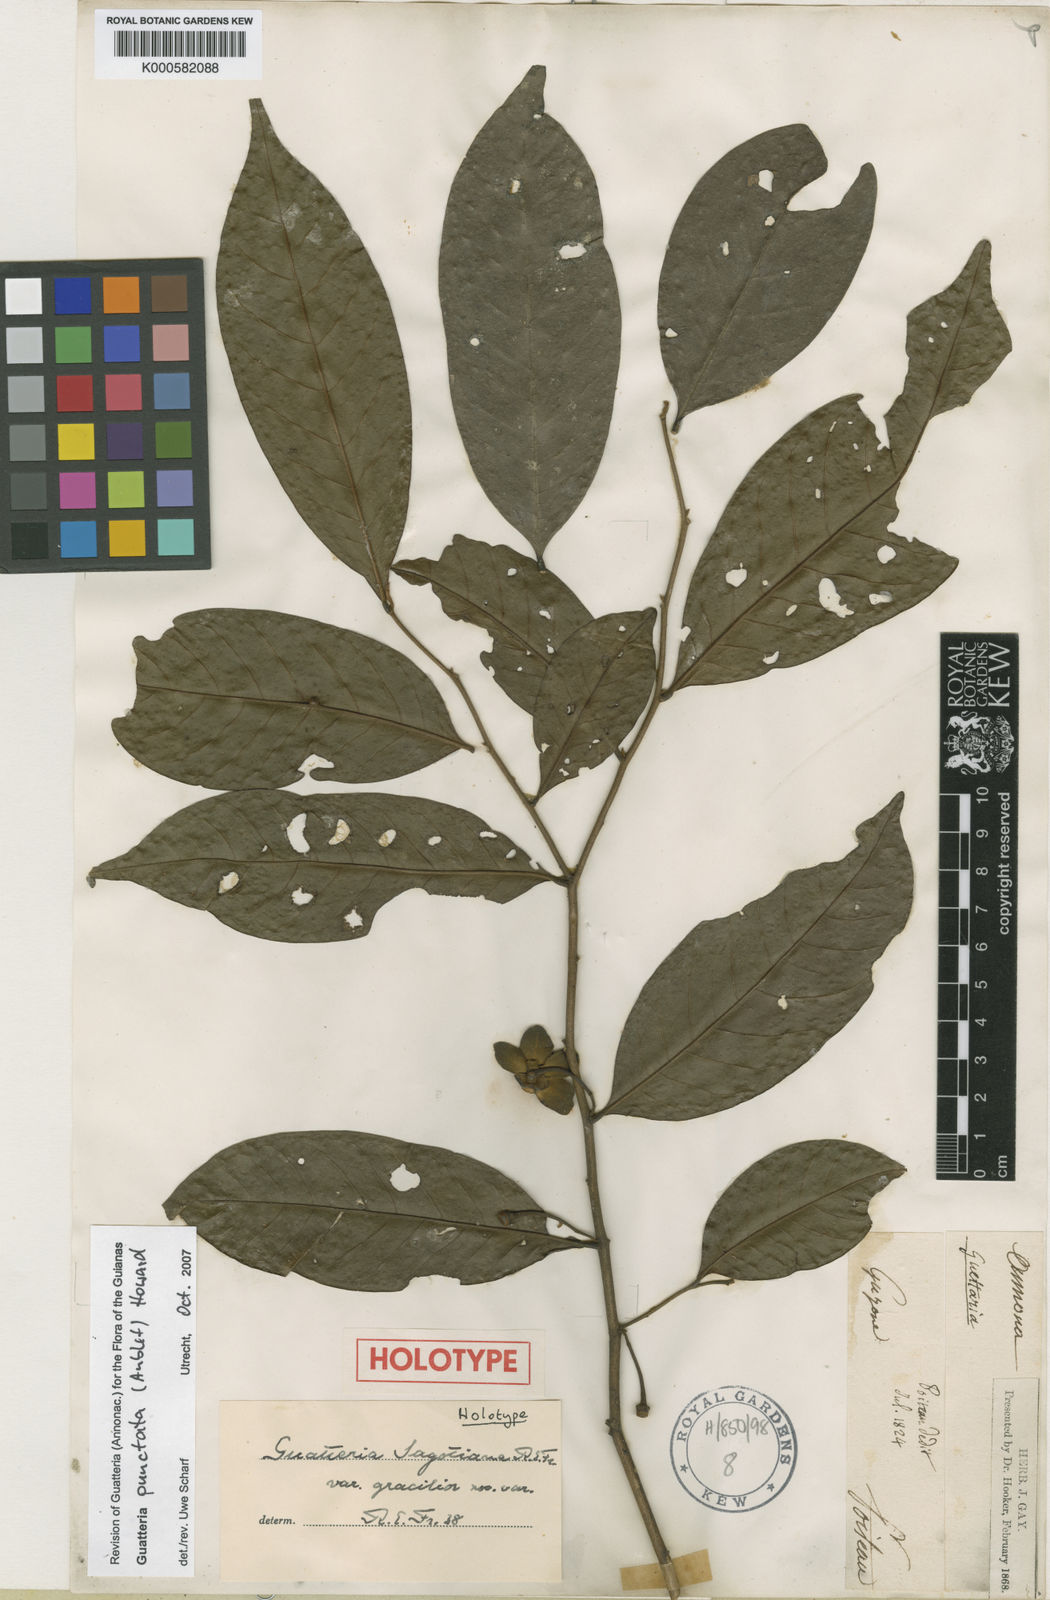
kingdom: Plantae
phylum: Tracheophyta
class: Magnoliopsida
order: Magnoliales
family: Annonaceae
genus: Guatteria
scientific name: Guatteria punctata
